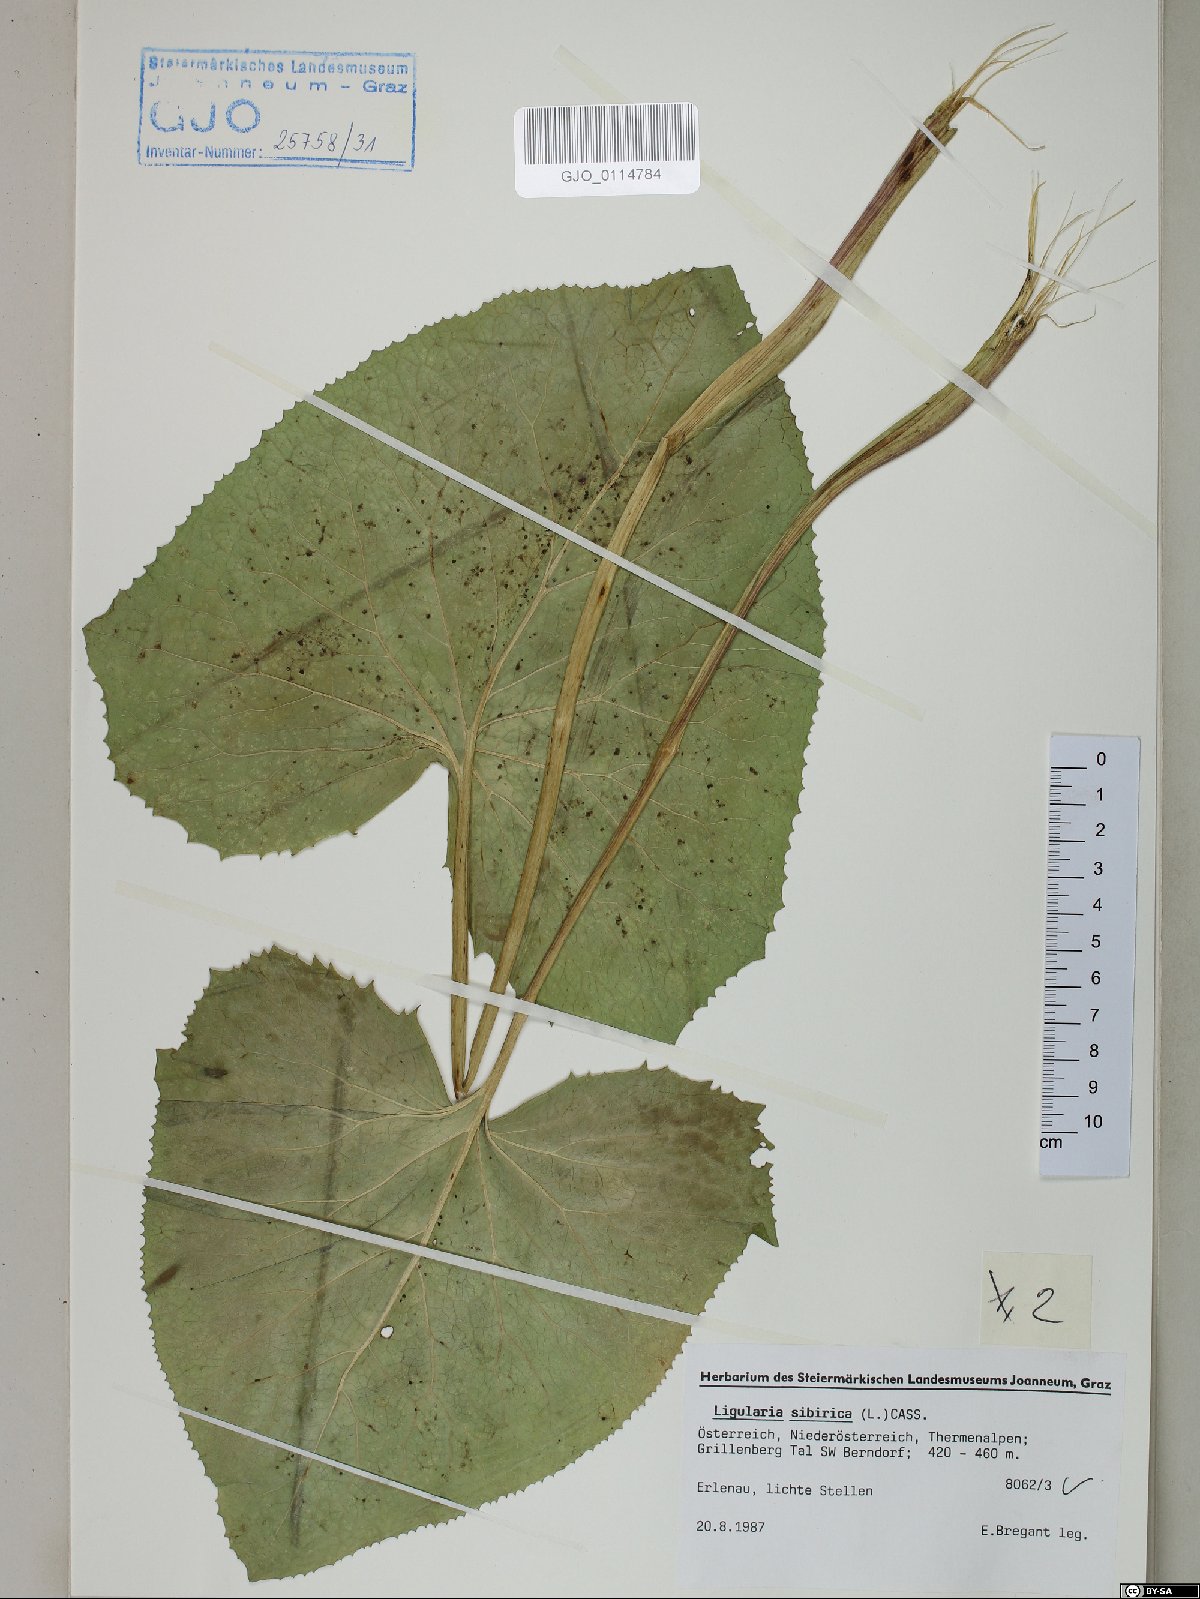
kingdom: Plantae
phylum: Tracheophyta
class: Magnoliopsida
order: Asterales
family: Asteraceae
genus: Ligularia
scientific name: Ligularia sibirica
